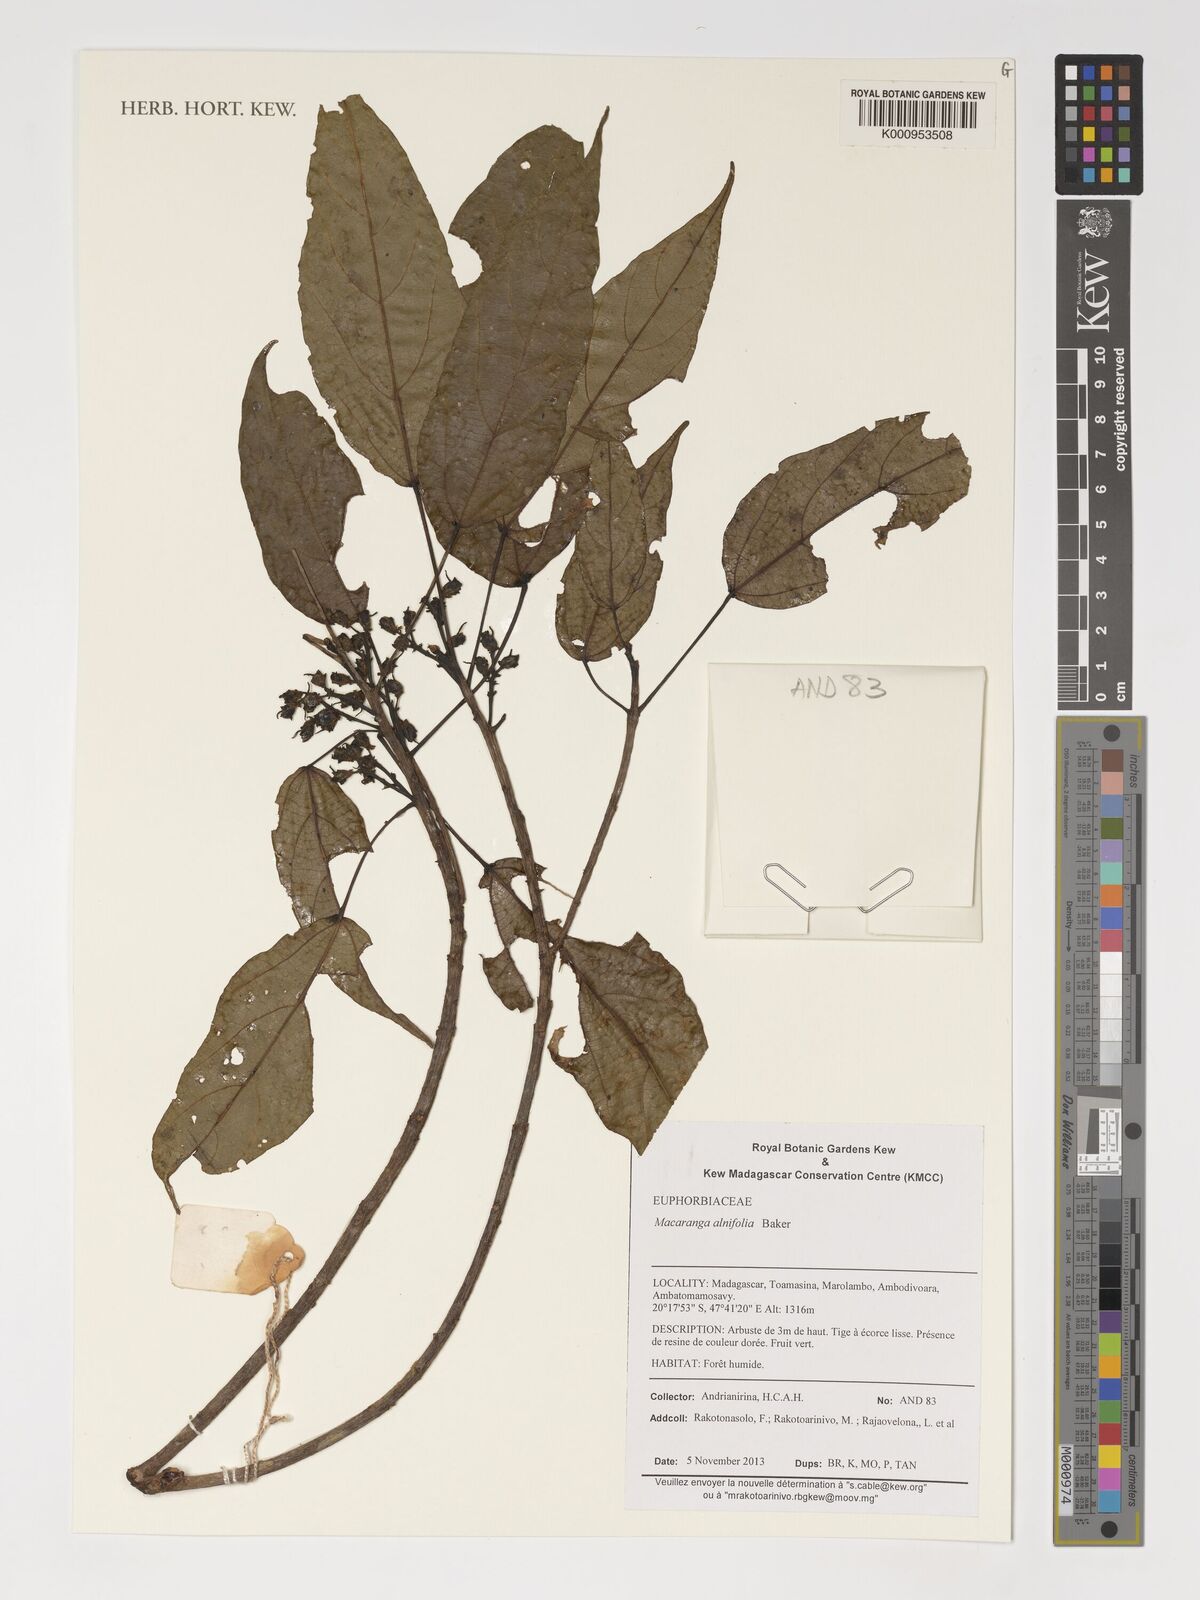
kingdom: Plantae
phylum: Tracheophyta
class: Magnoliopsida
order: Malpighiales
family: Euphorbiaceae
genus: Macaranga
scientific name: Macaranga alnifolia
